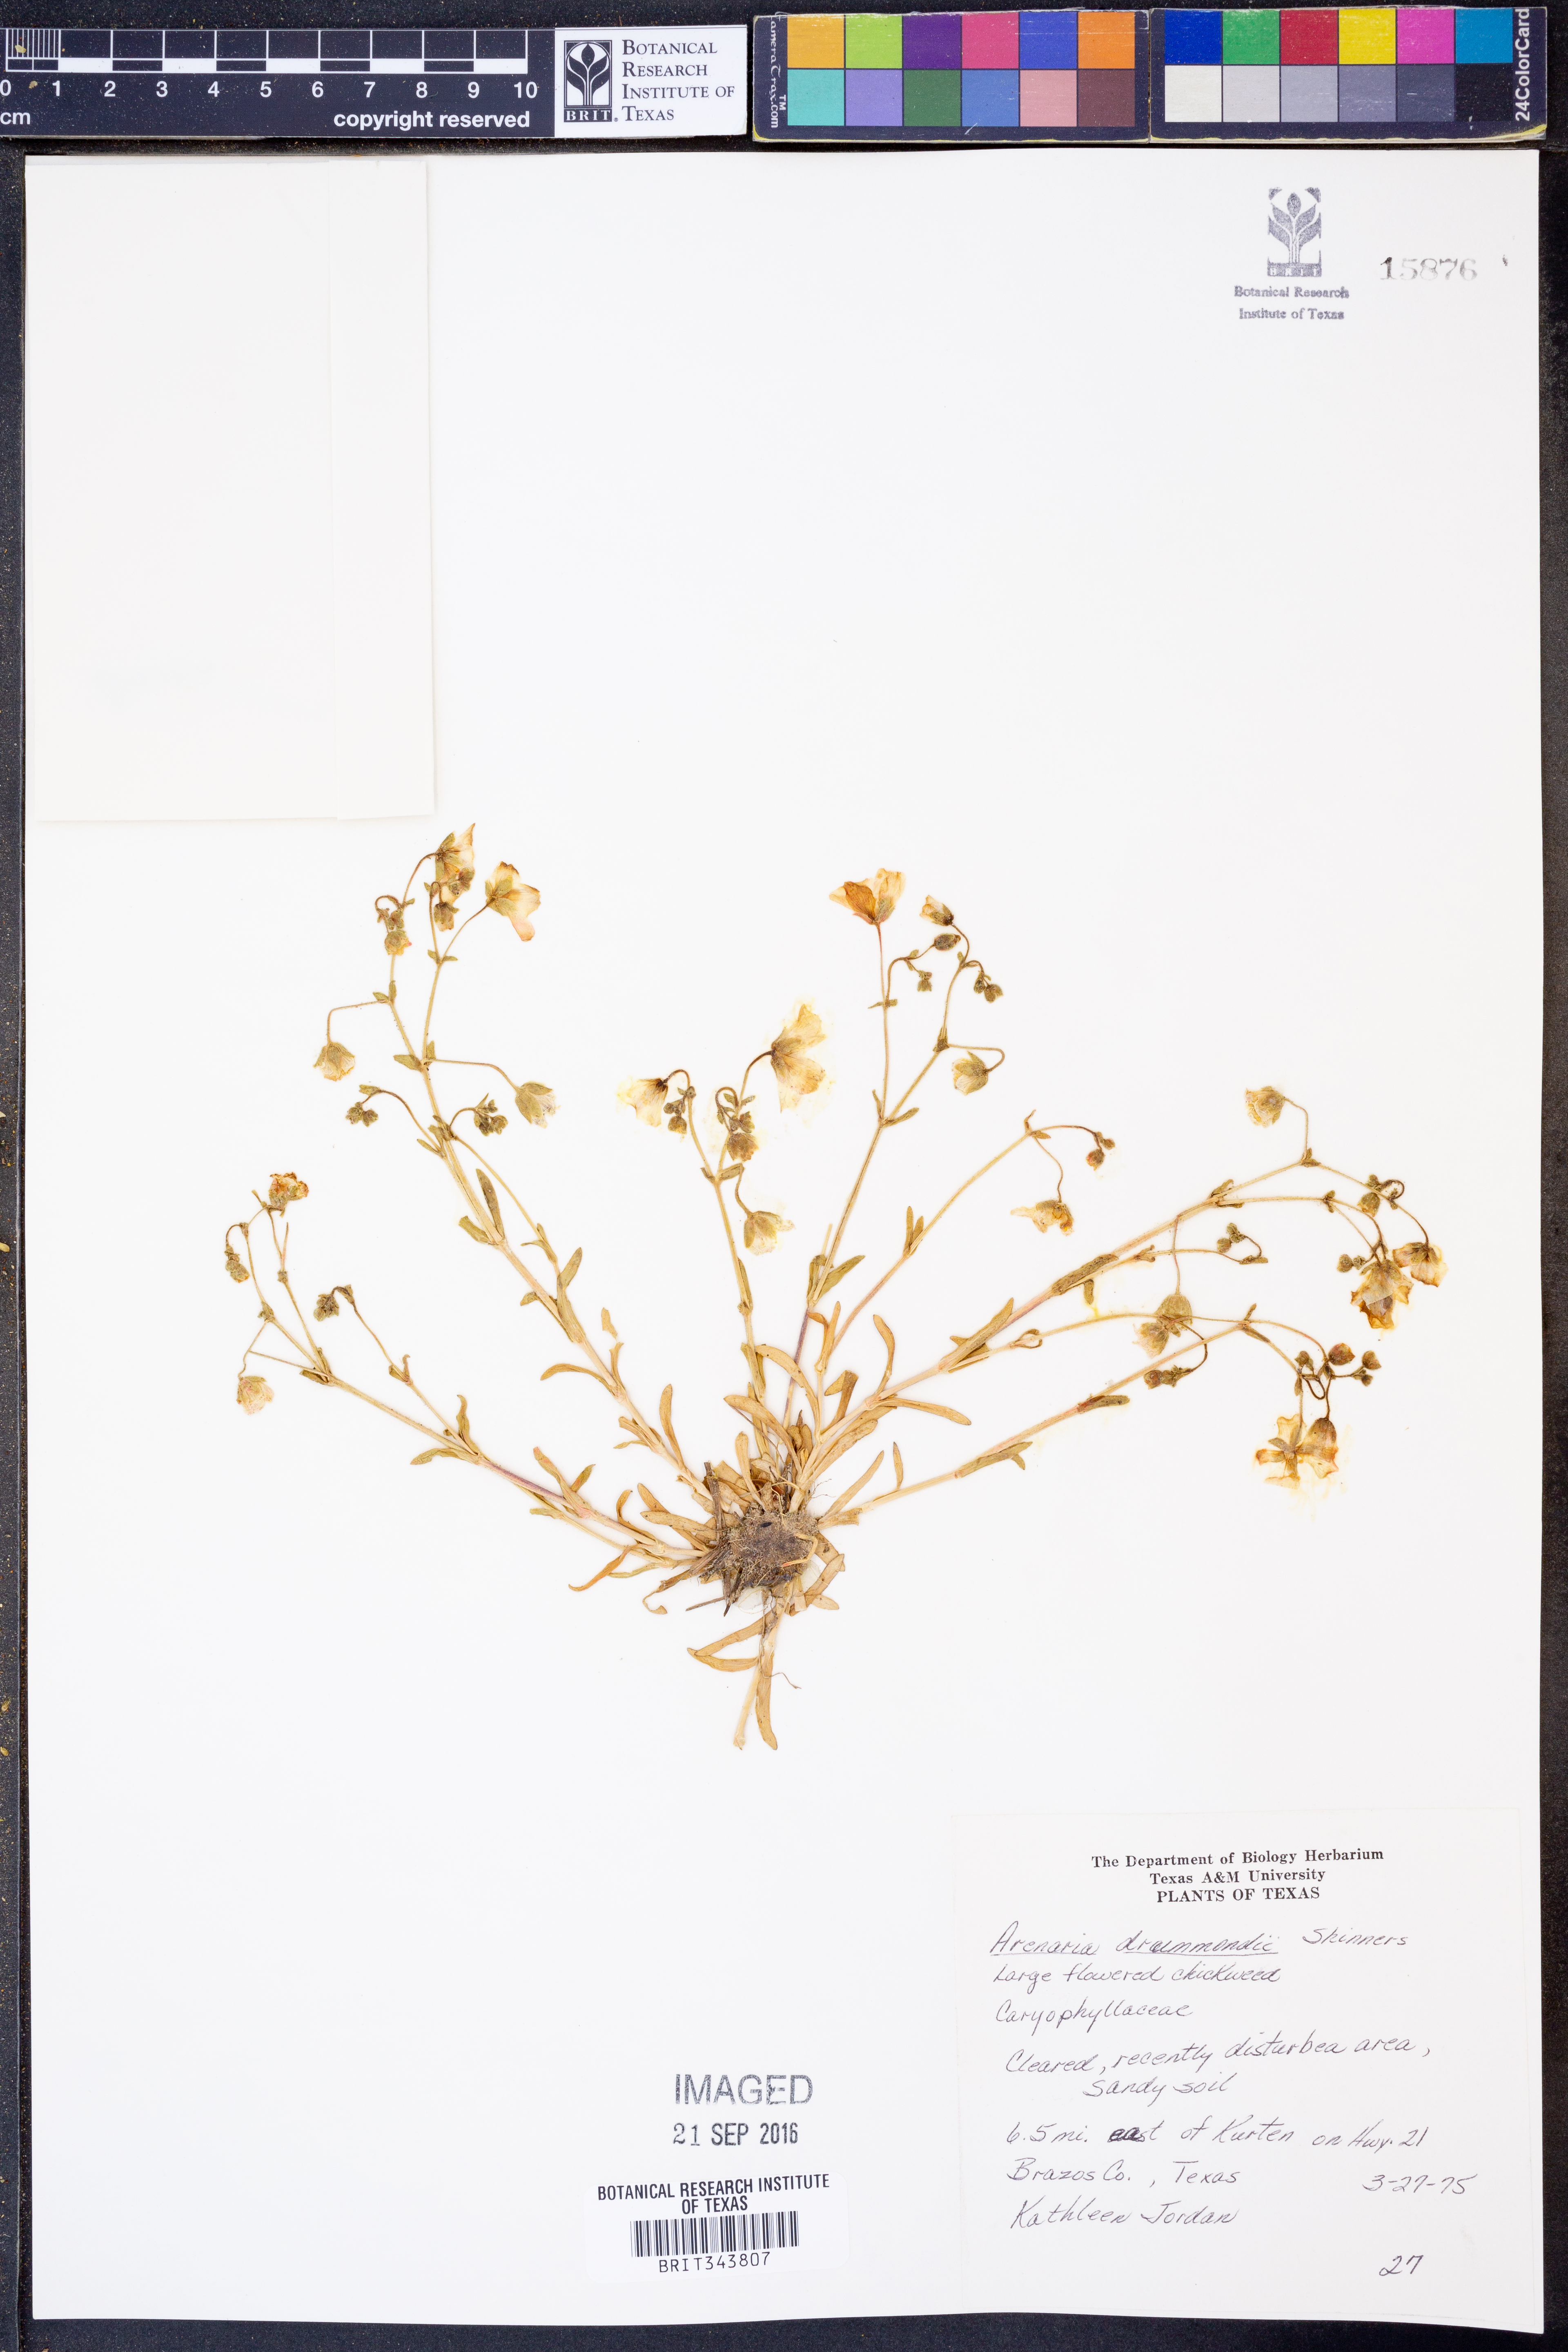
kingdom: Plantae
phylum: Tracheophyta
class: Magnoliopsida
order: Caryophyllales
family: Caryophyllaceae
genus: Geocarpon
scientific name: Geocarpon nuttallii
